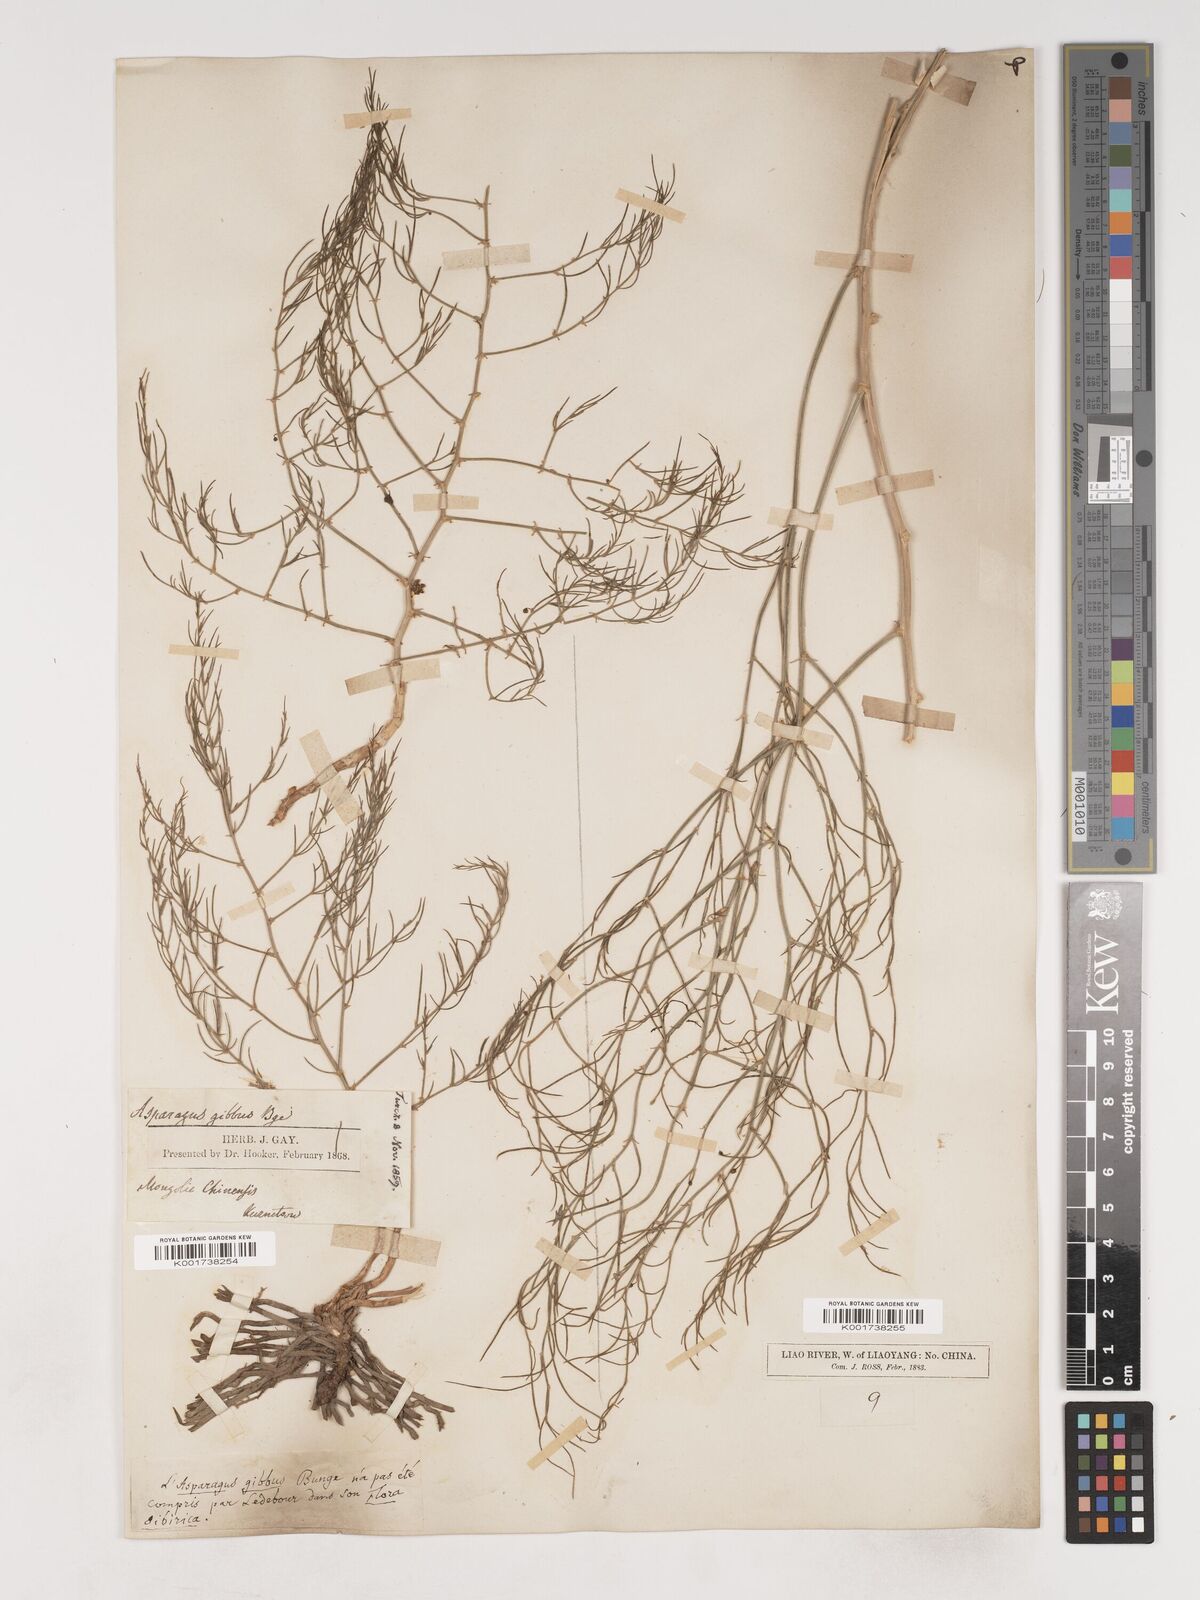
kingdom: Plantae
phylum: Tracheophyta
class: Liliopsida
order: Asparagales
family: Asparagaceae
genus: Asparagus
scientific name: Asparagus dauricus
